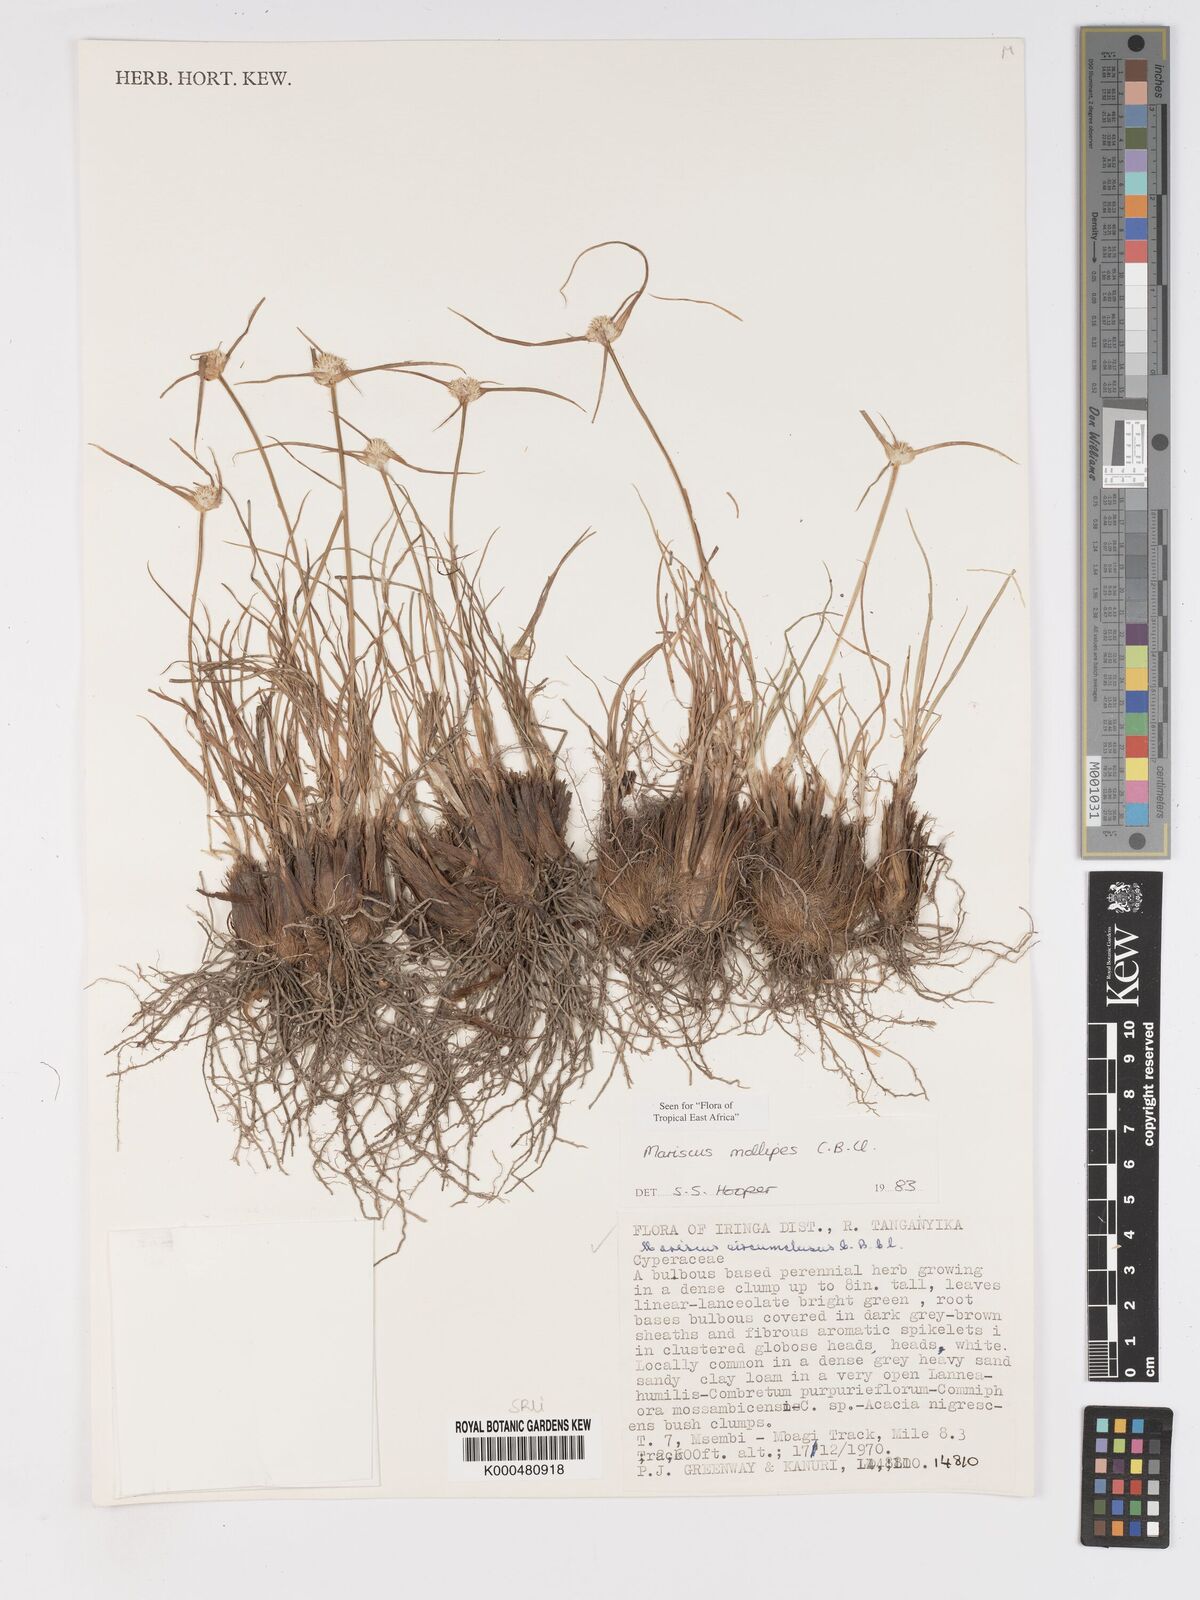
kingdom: Plantae
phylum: Tracheophyta
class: Liliopsida
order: Poales
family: Cyperaceae
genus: Cyperus
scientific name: Cyperus mollipes
